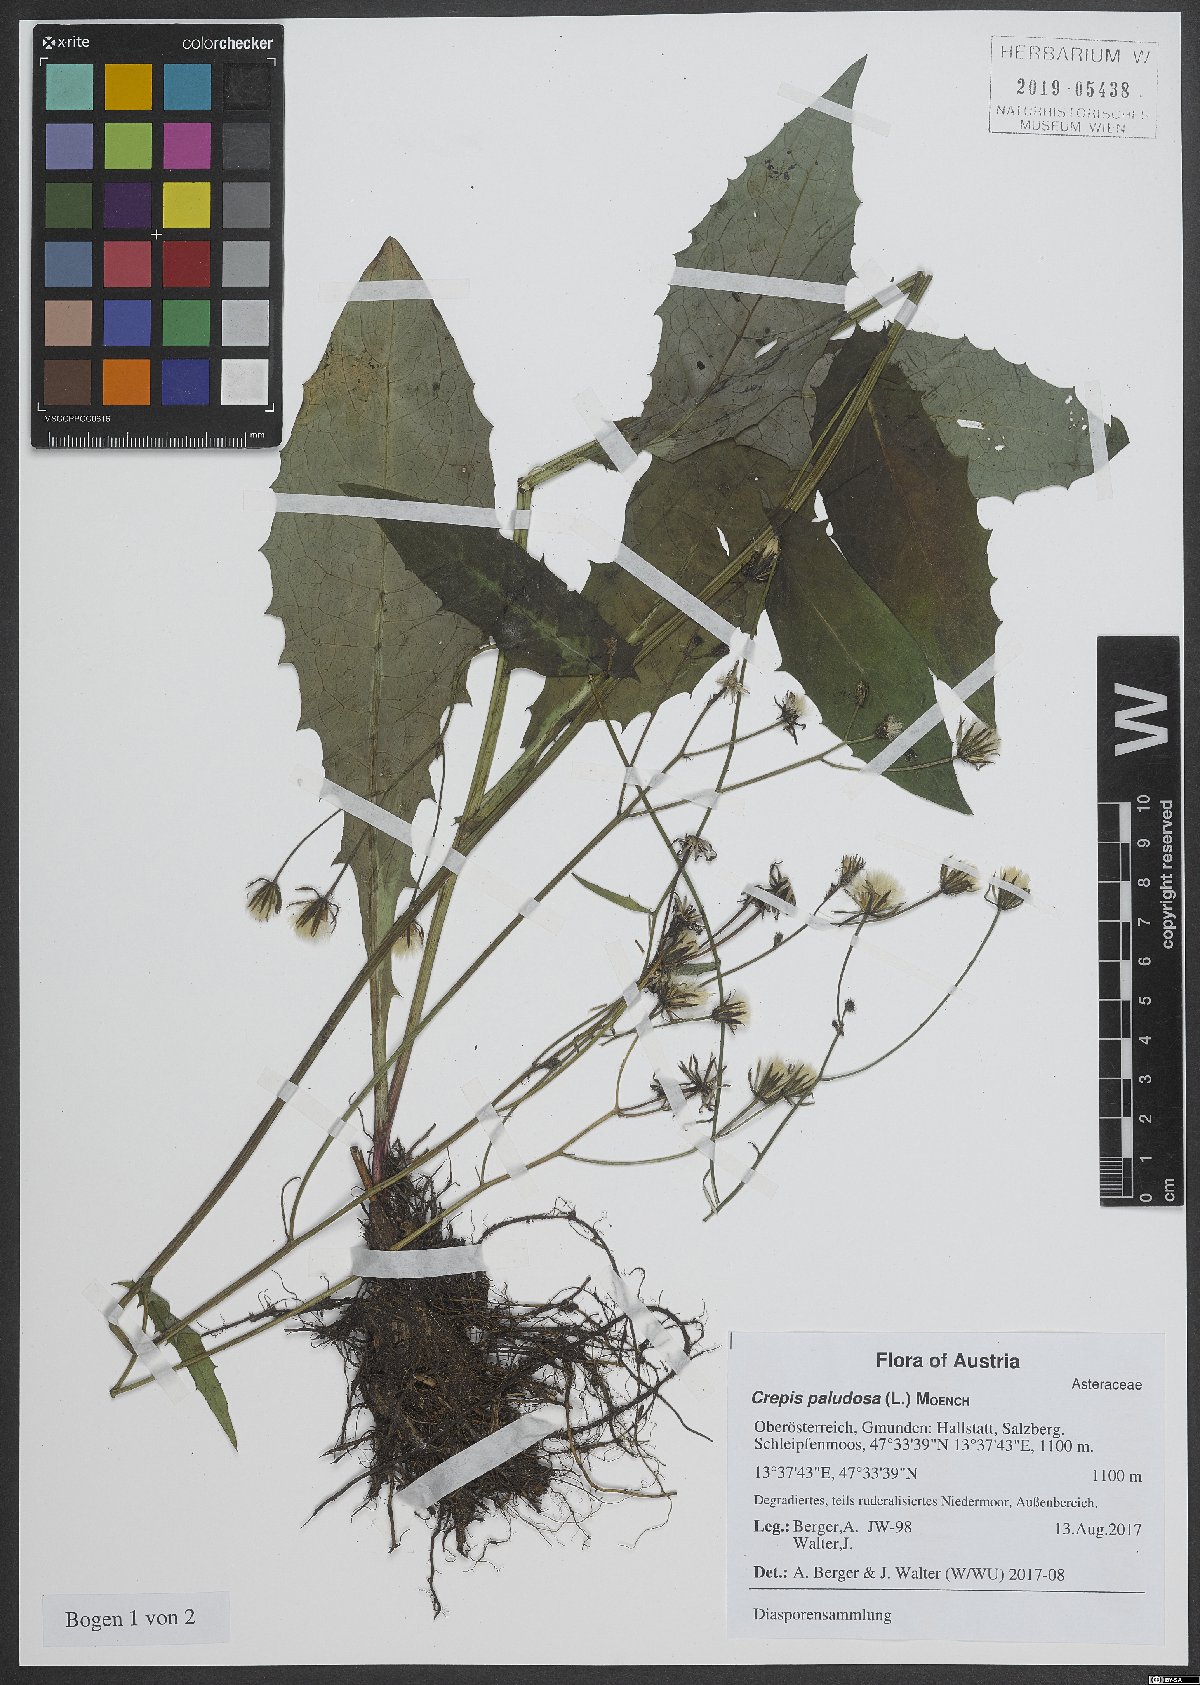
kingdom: Plantae
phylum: Tracheophyta
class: Magnoliopsida
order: Asterales
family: Asteraceae
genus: Crepis
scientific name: Crepis paludosa
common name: Marsh hawk's-beard
